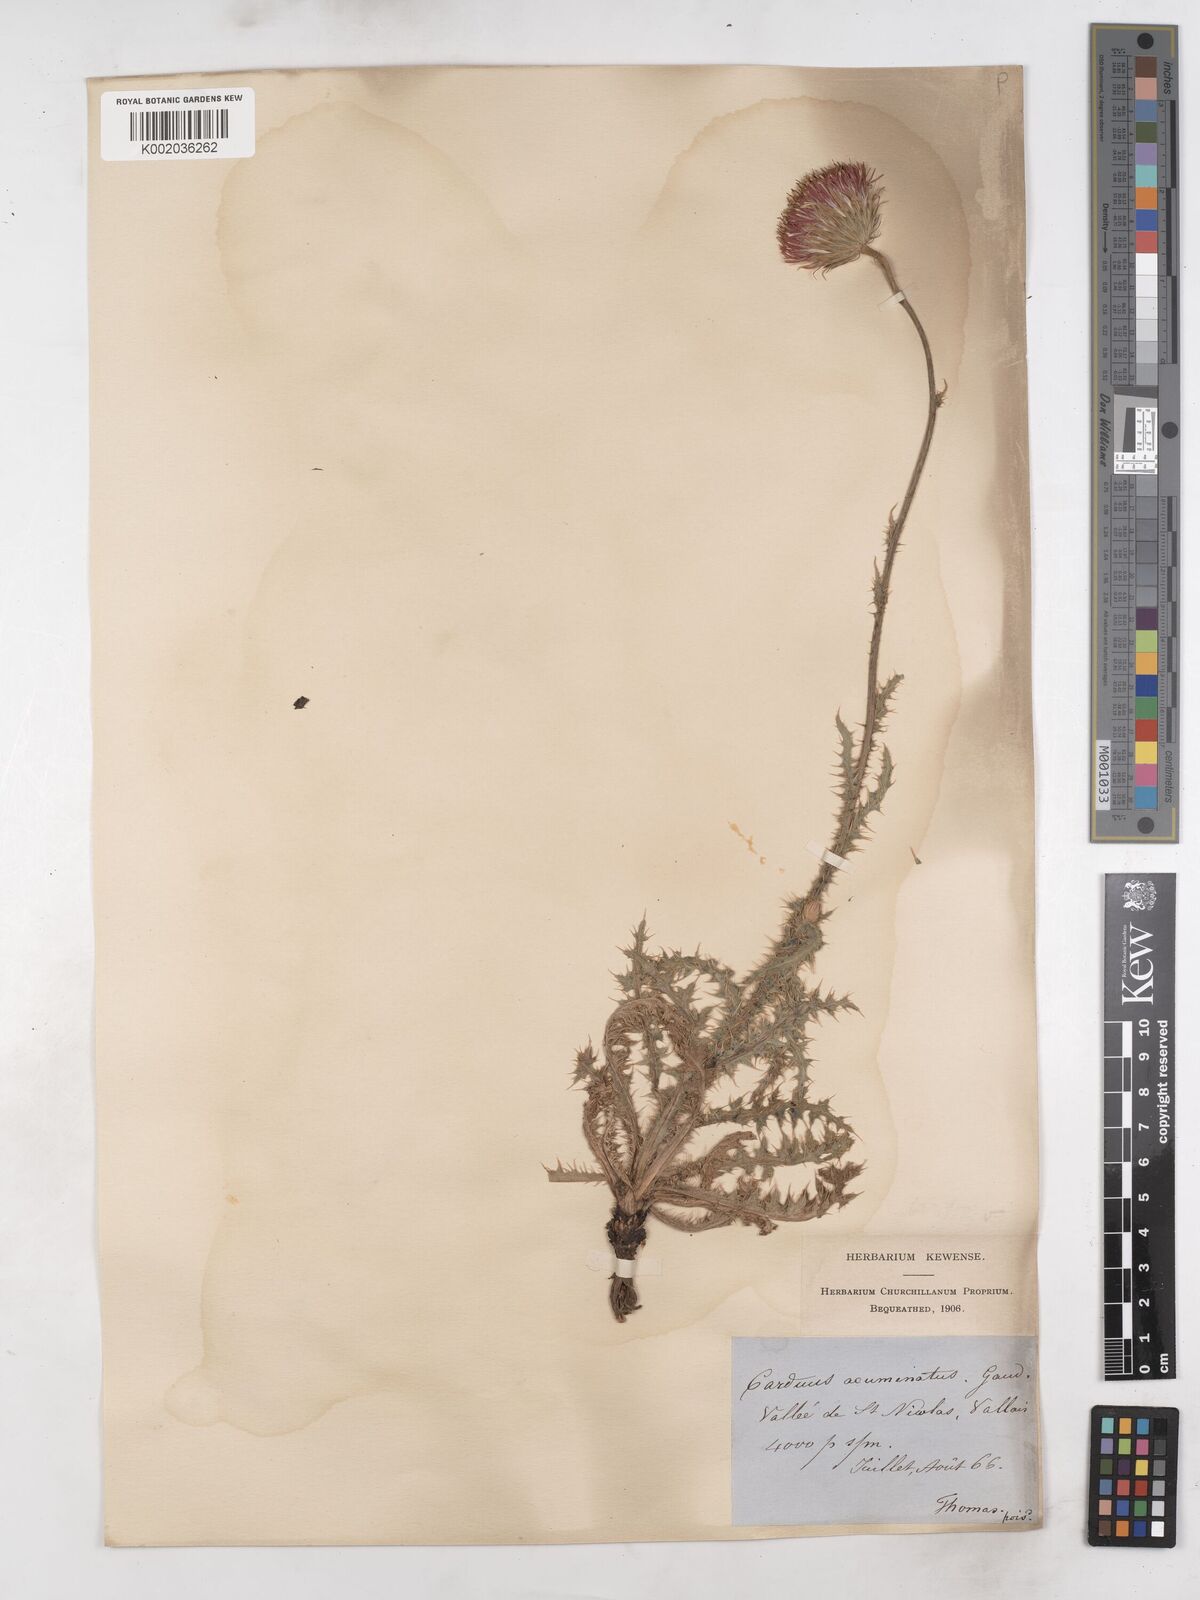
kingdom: Plantae
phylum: Tracheophyta
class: Magnoliopsida
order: Asterales
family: Asteraceae
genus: Carduus
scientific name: Carduus defloratus
